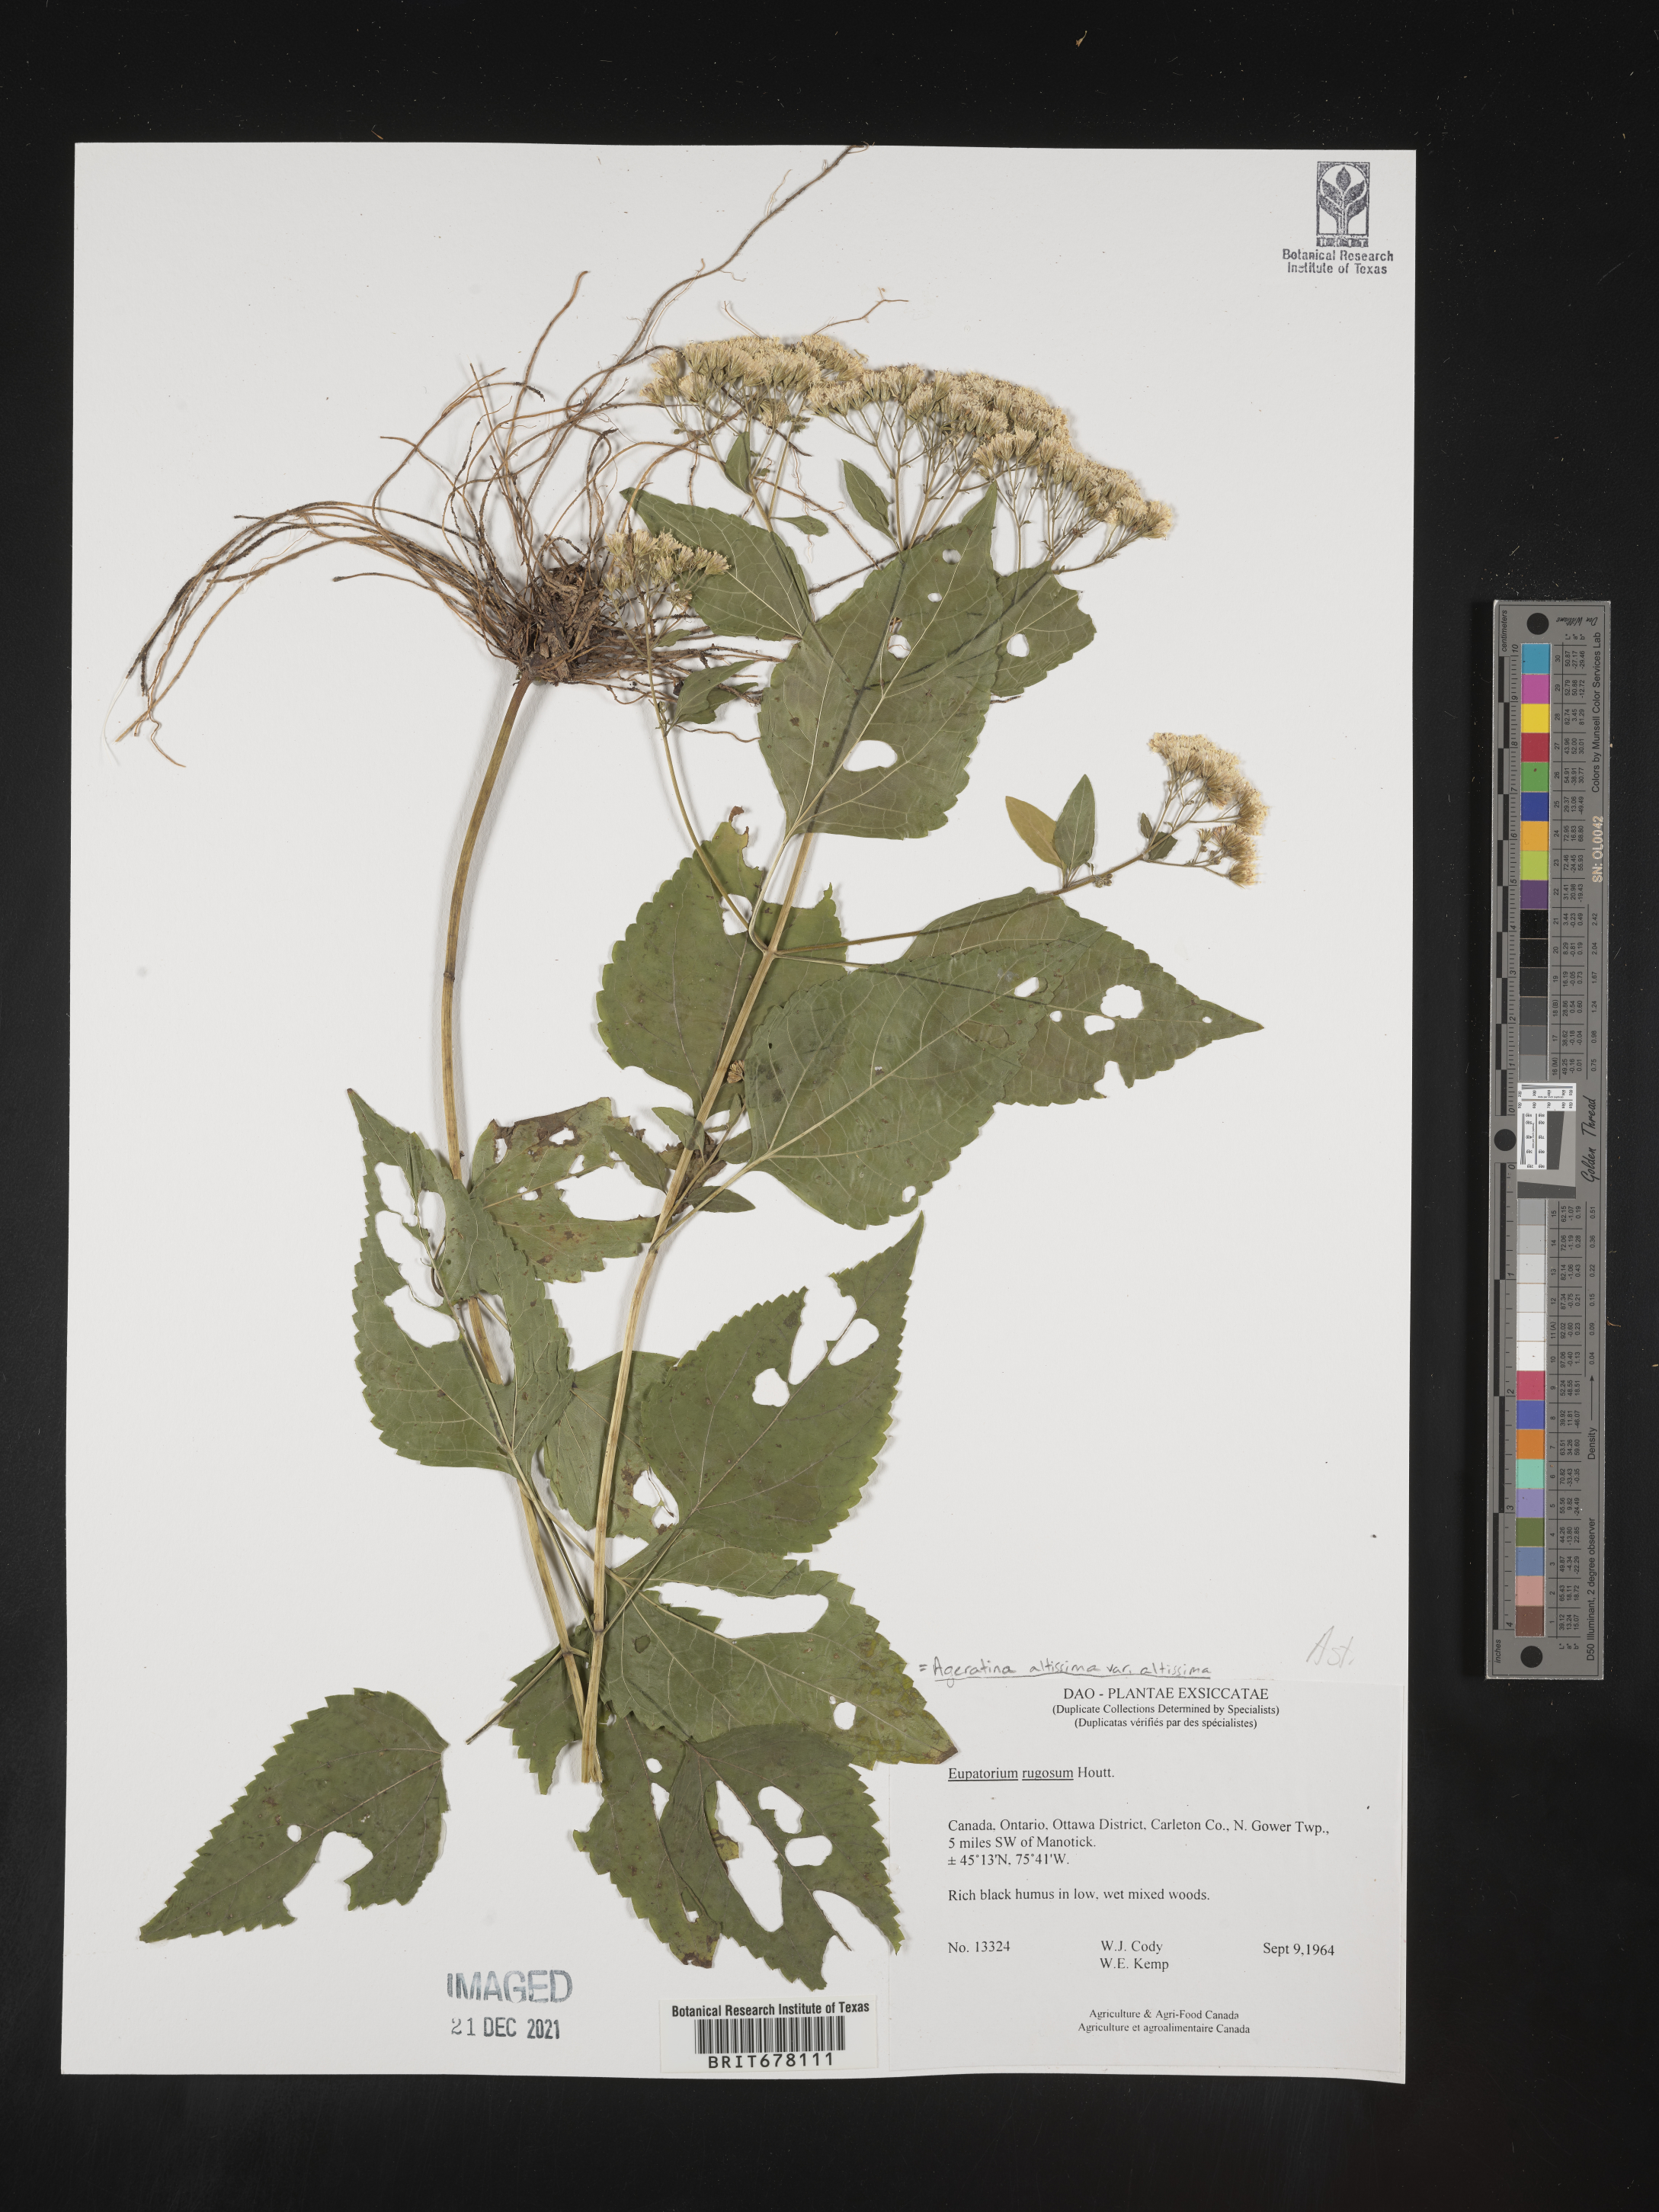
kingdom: Plantae
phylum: Tracheophyta
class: Magnoliopsida
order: Asterales
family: Asteraceae
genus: Eupatorium
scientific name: Eupatorium
